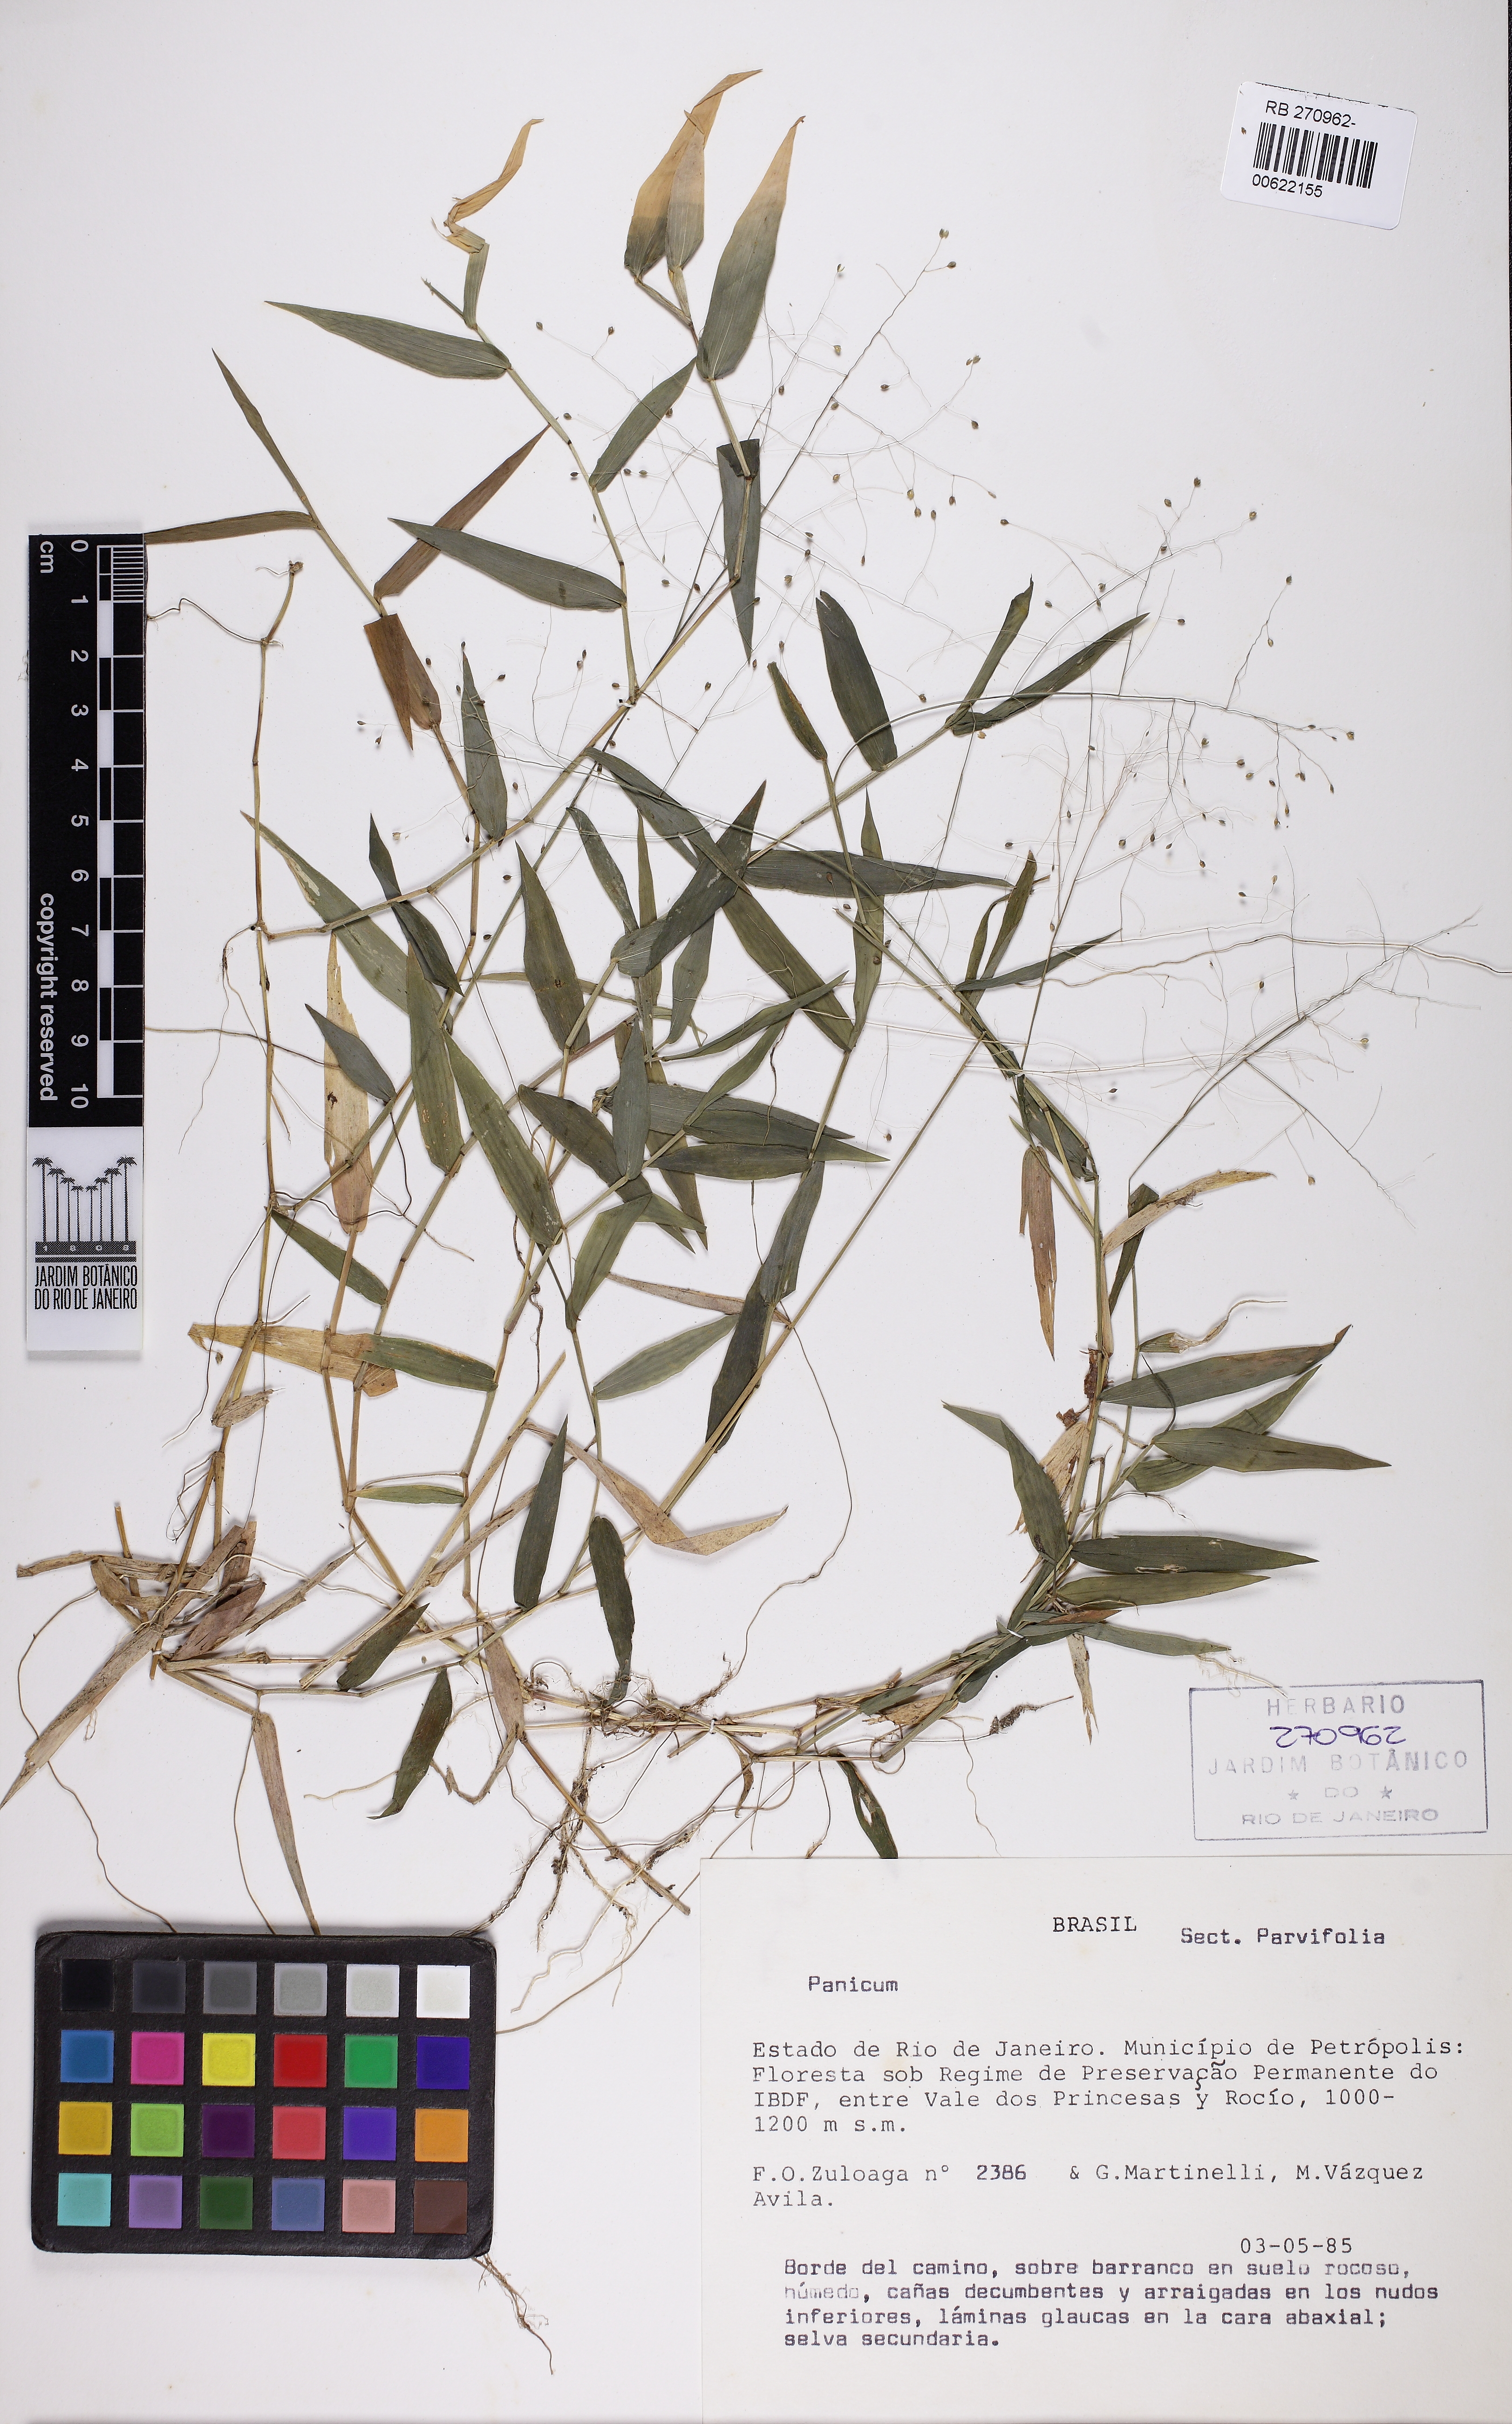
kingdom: Plantae
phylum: Tracheophyta
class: Liliopsida
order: Poales
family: Poaceae
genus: Trichanthecium
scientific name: Trichanthecium schwackeanum
